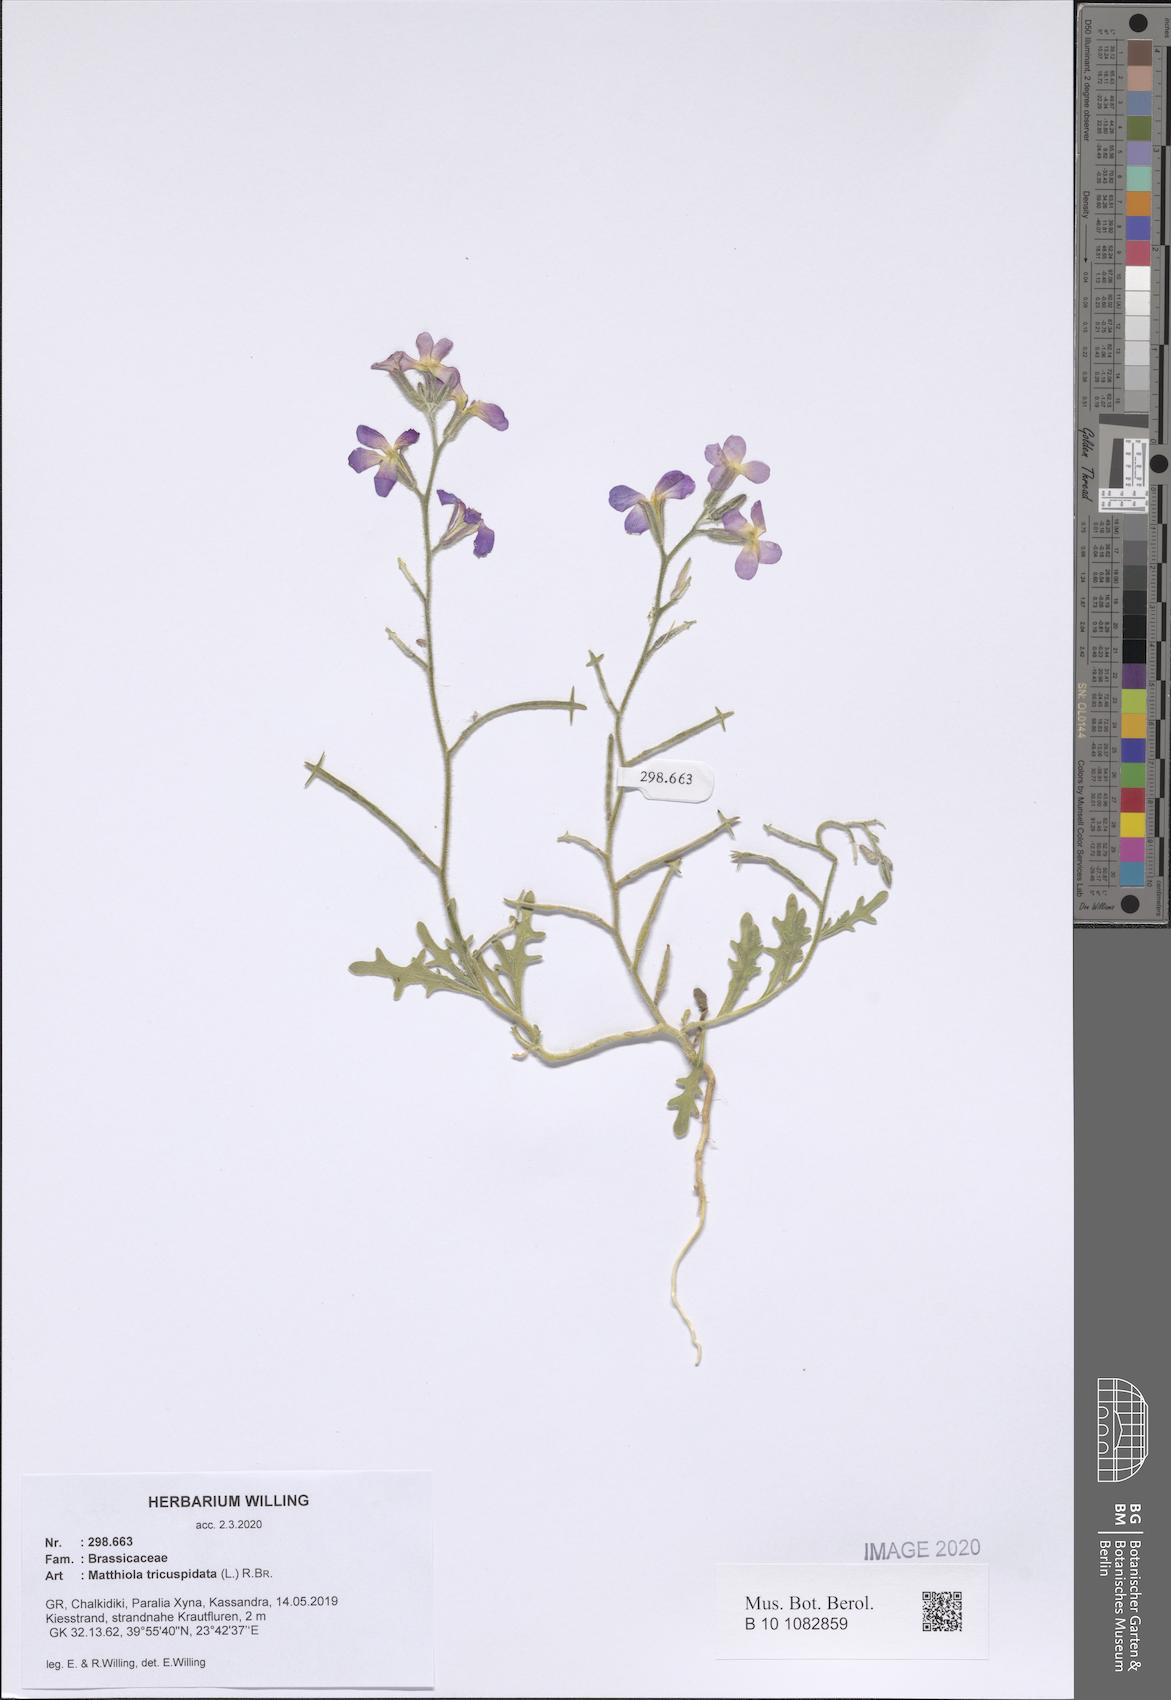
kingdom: Plantae
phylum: Tracheophyta
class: Magnoliopsida
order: Brassicales
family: Brassicaceae
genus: Matthiola
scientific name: Matthiola tricuspidata
